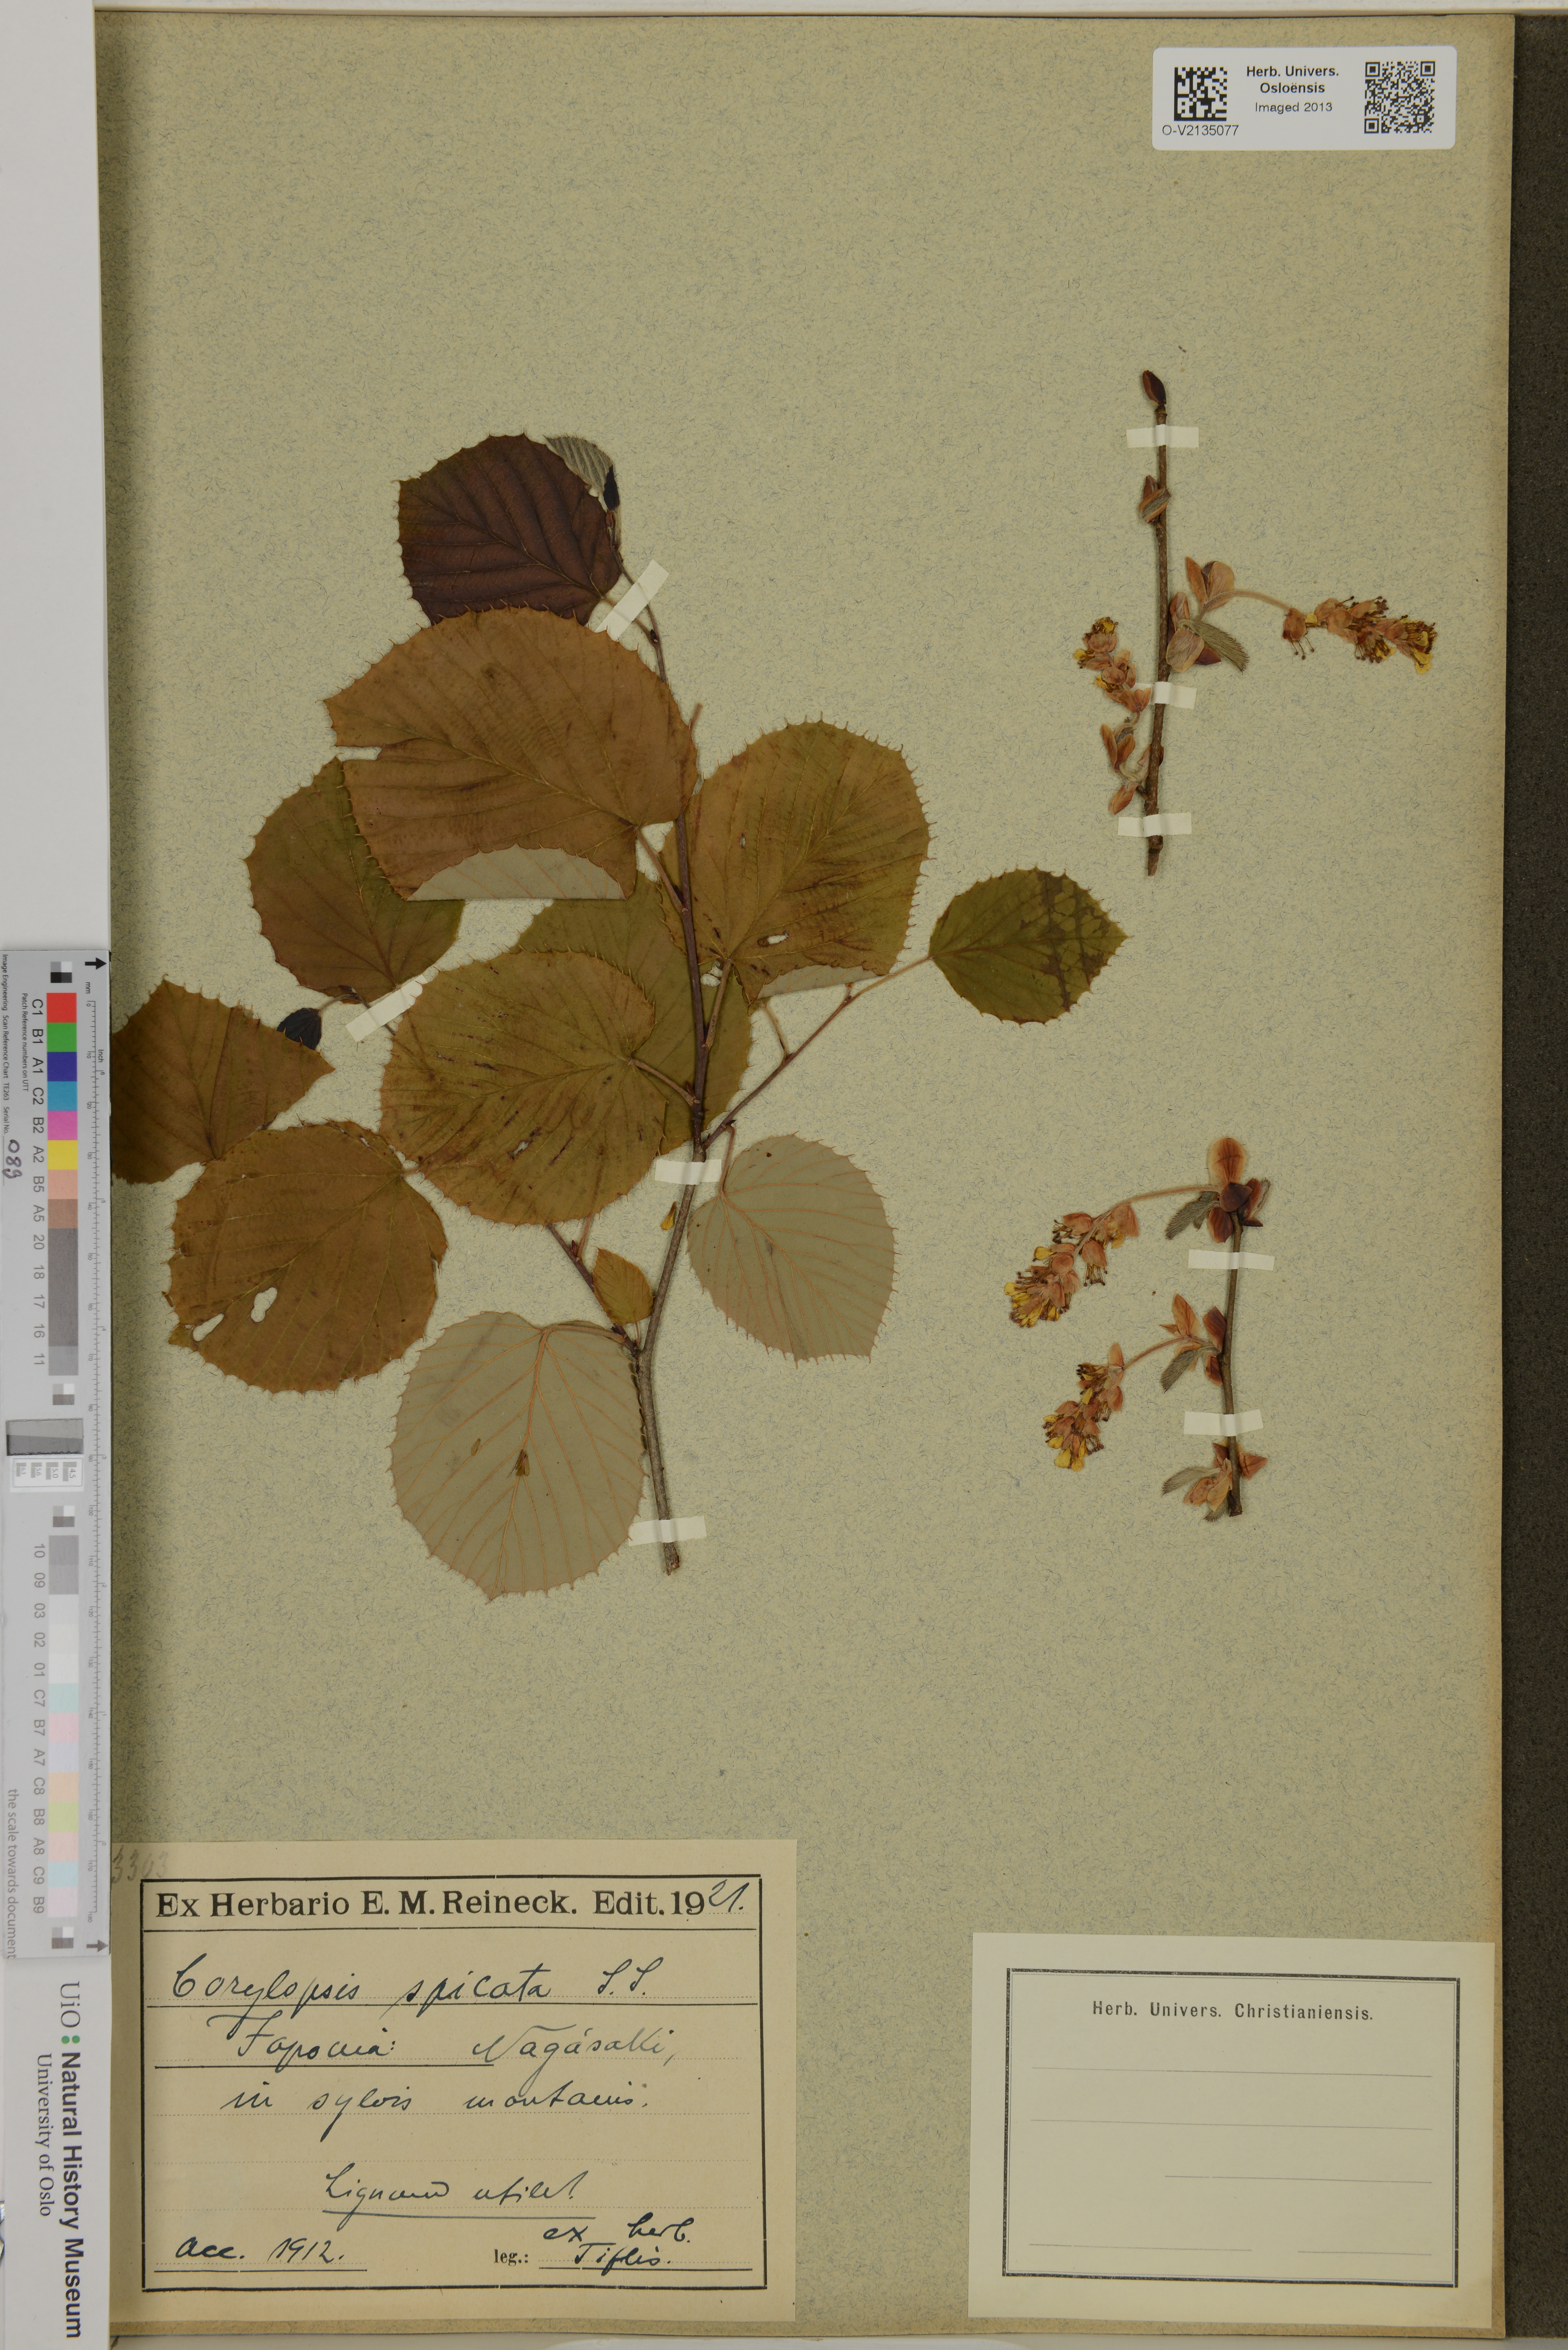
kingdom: Plantae
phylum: Tracheophyta
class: Magnoliopsida
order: Saxifragales
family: Hamamelidaceae
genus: Corylopsis
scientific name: Corylopsis spicata
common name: Spike winter-hazel
